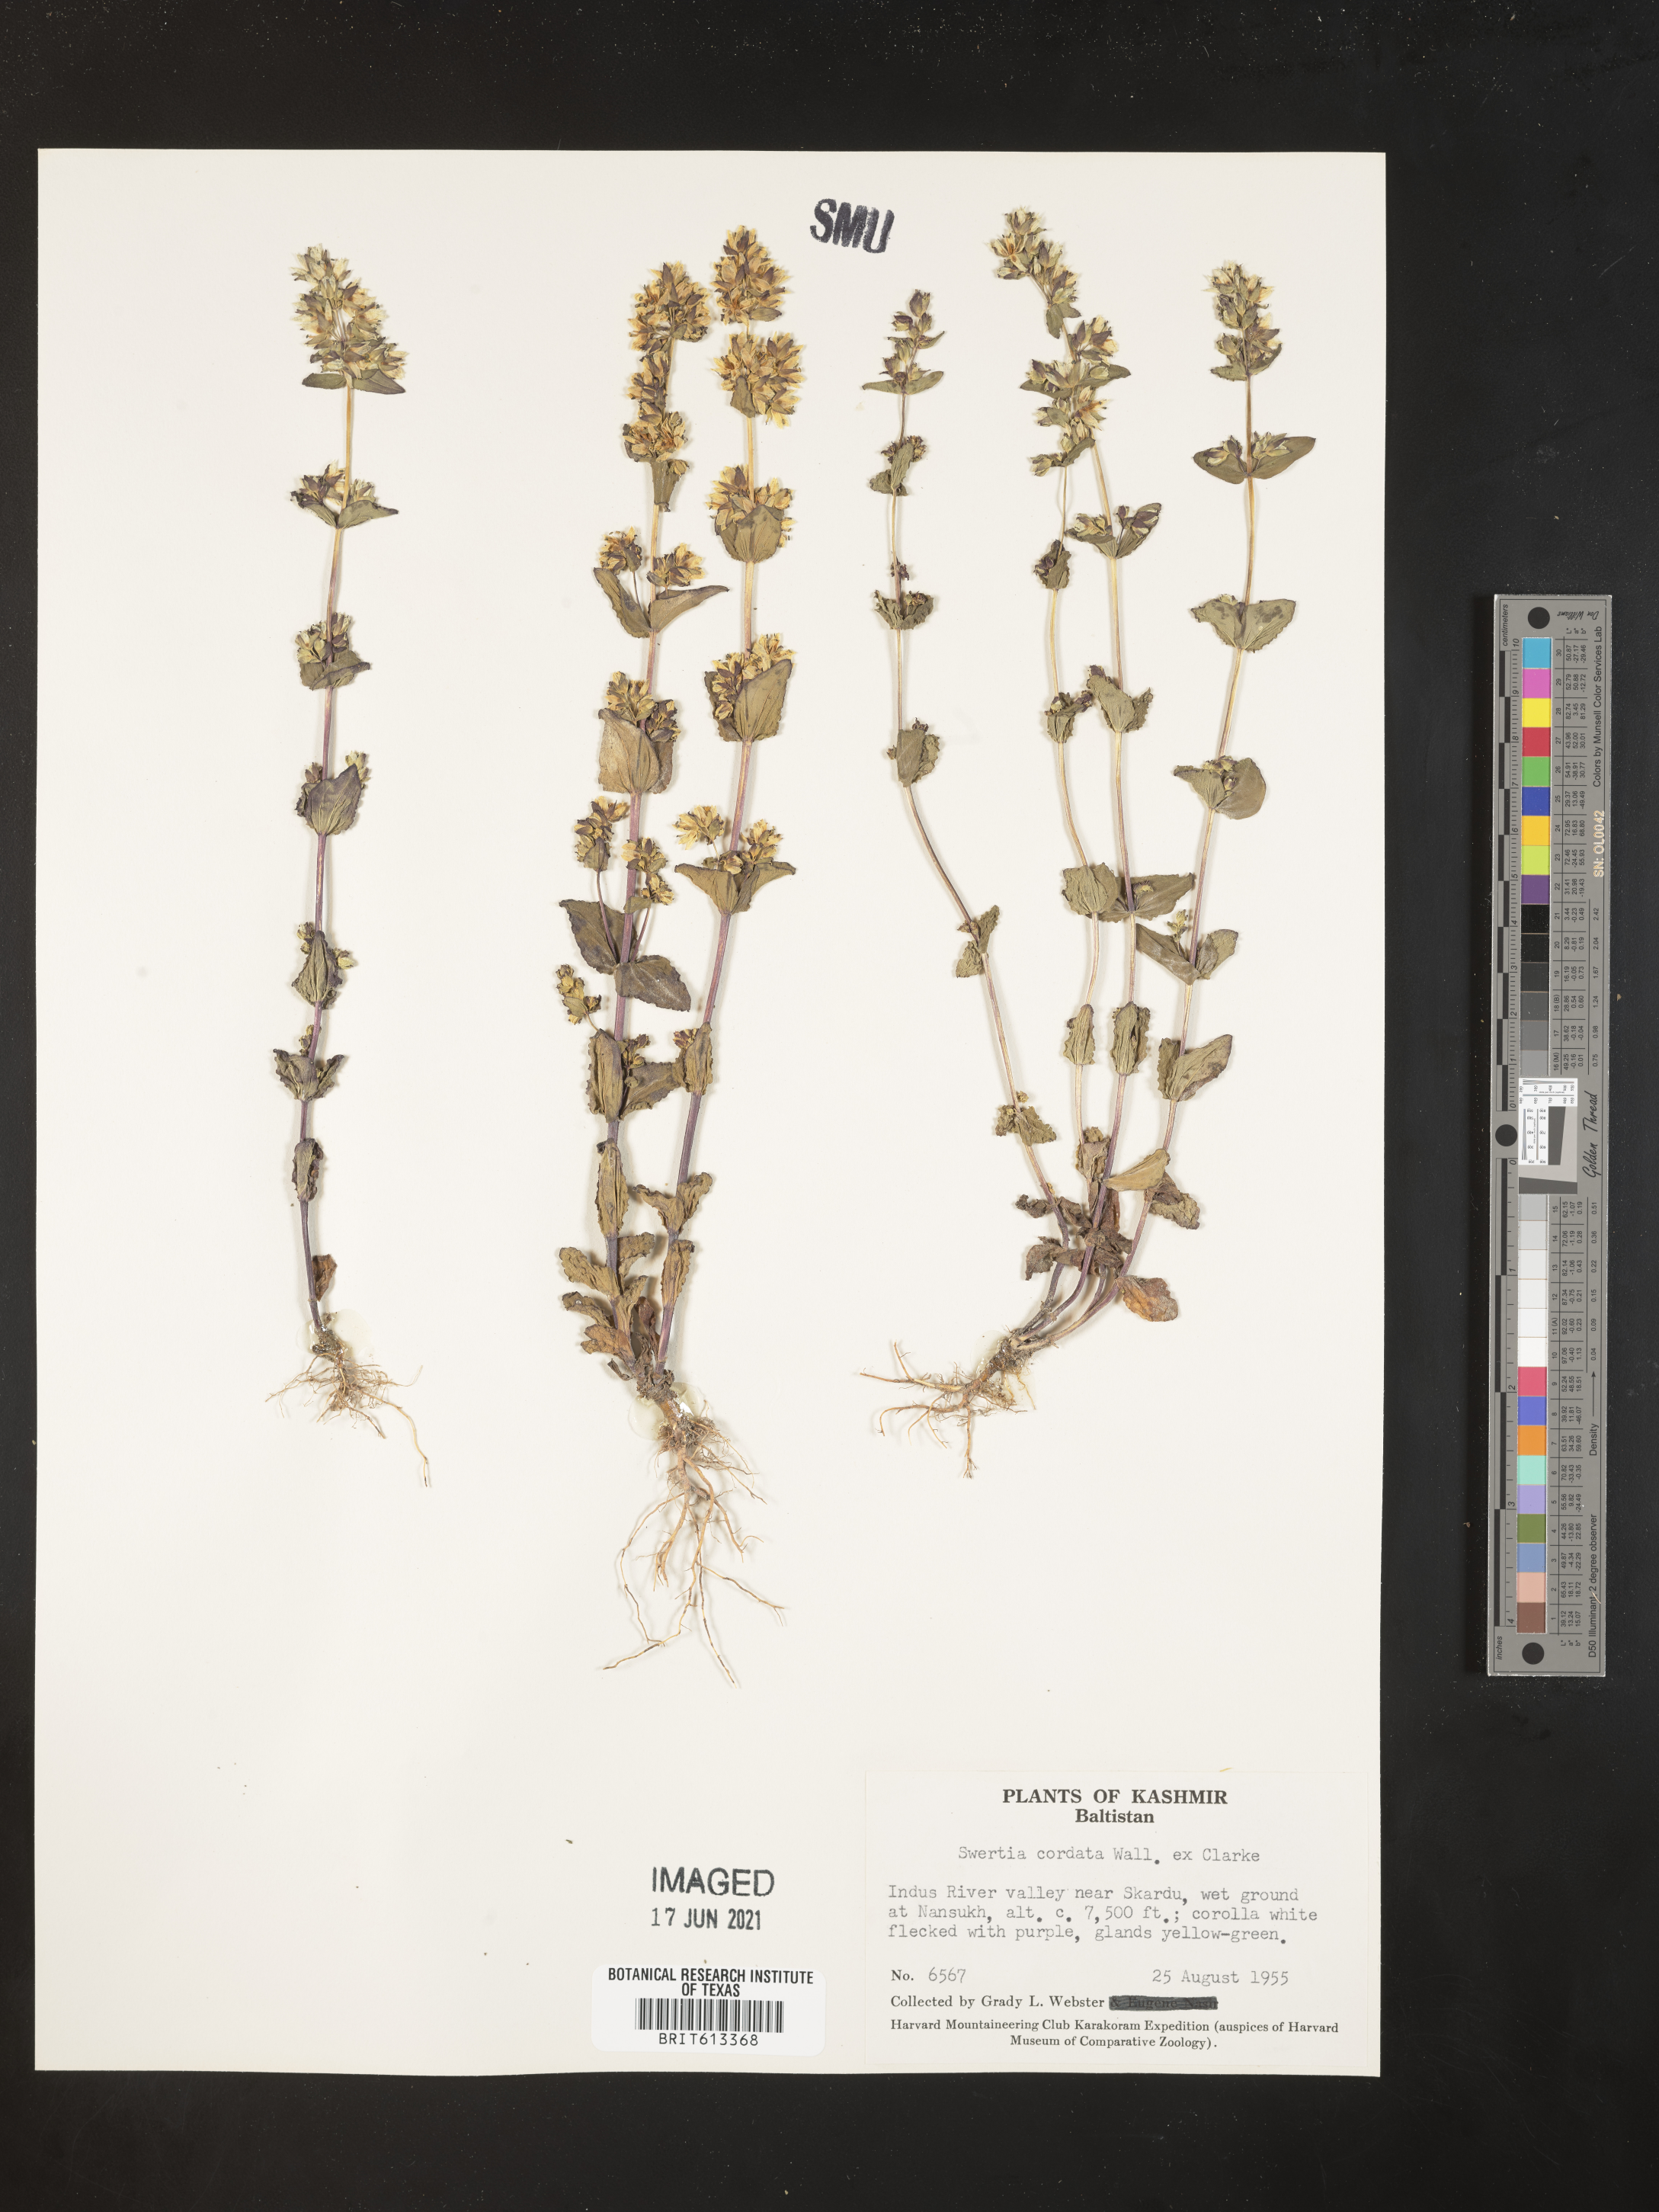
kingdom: Plantae
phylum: Tracheophyta
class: Magnoliopsida
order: Gentianales
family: Gentianaceae
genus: Swertia
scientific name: Swertia cordata
